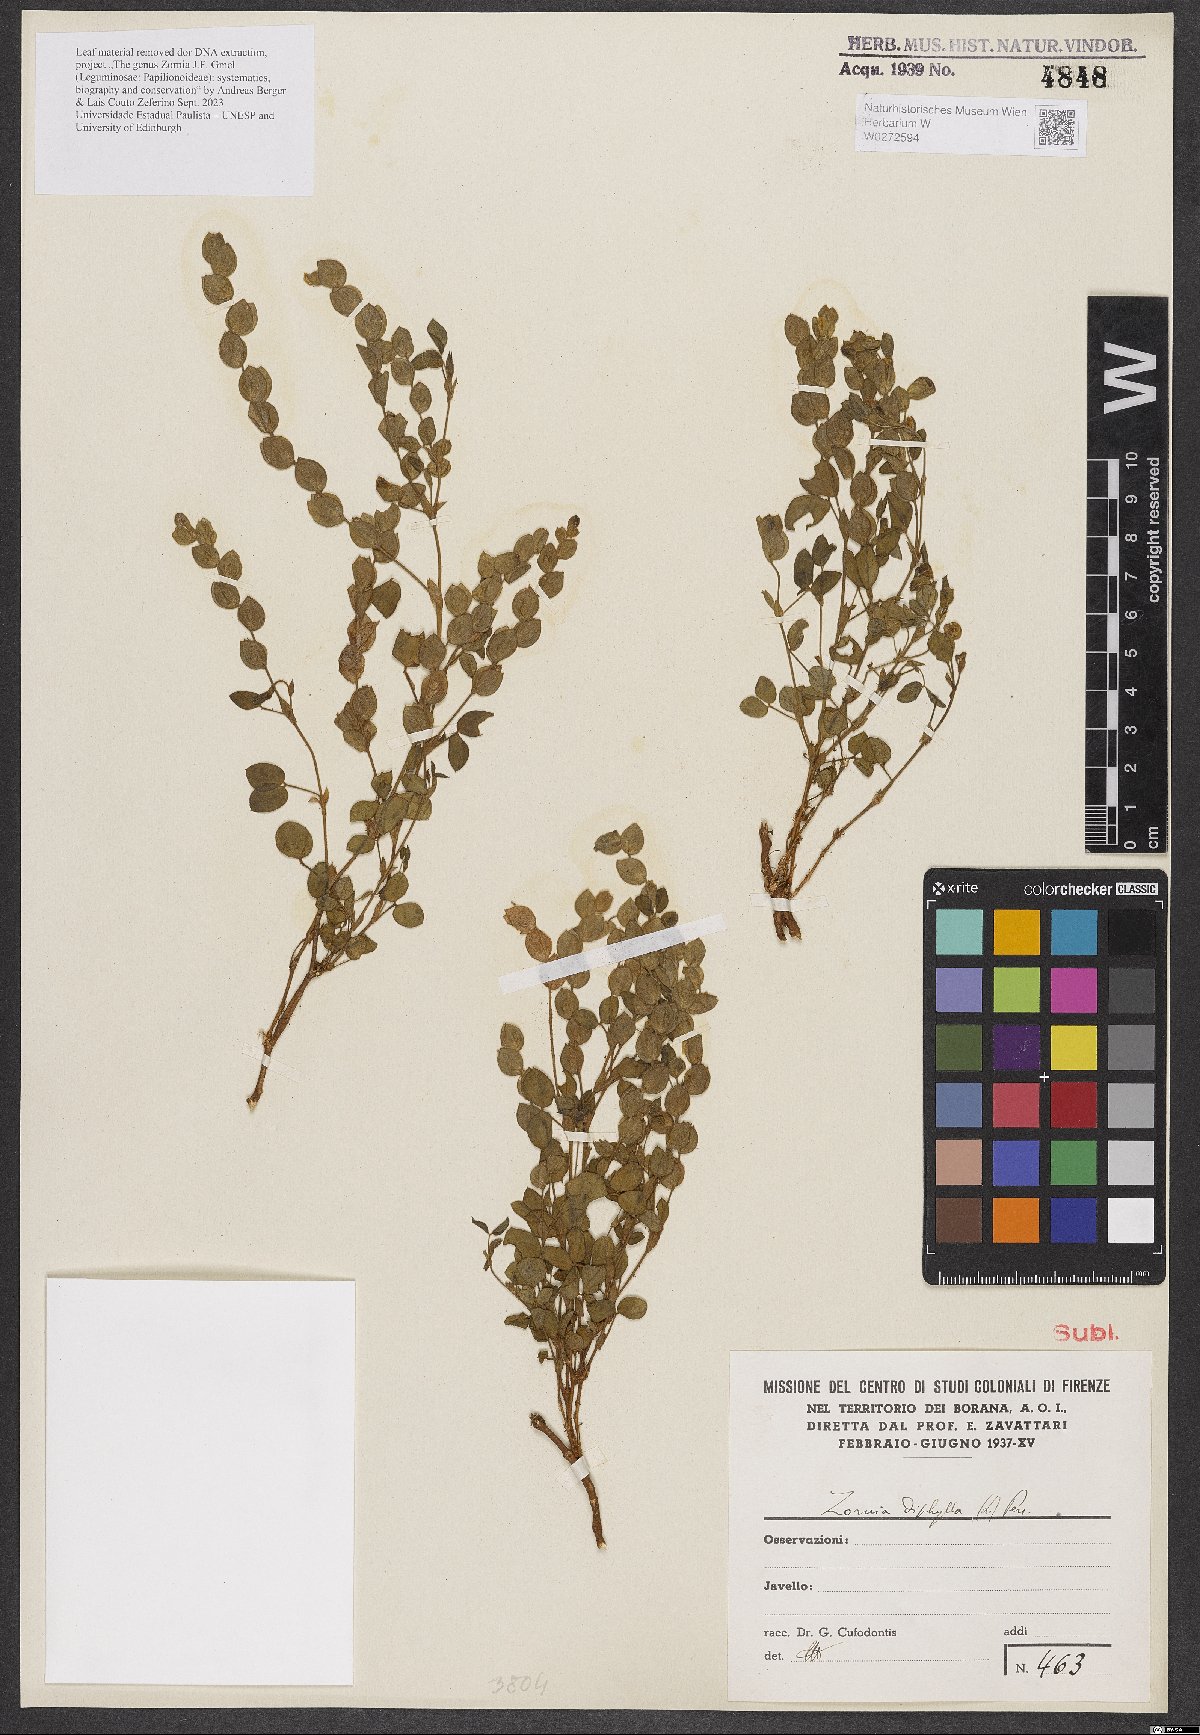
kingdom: Plantae
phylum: Tracheophyta
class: Magnoliopsida
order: Fabales
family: Fabaceae
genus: Zornia
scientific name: Zornia diphylla
